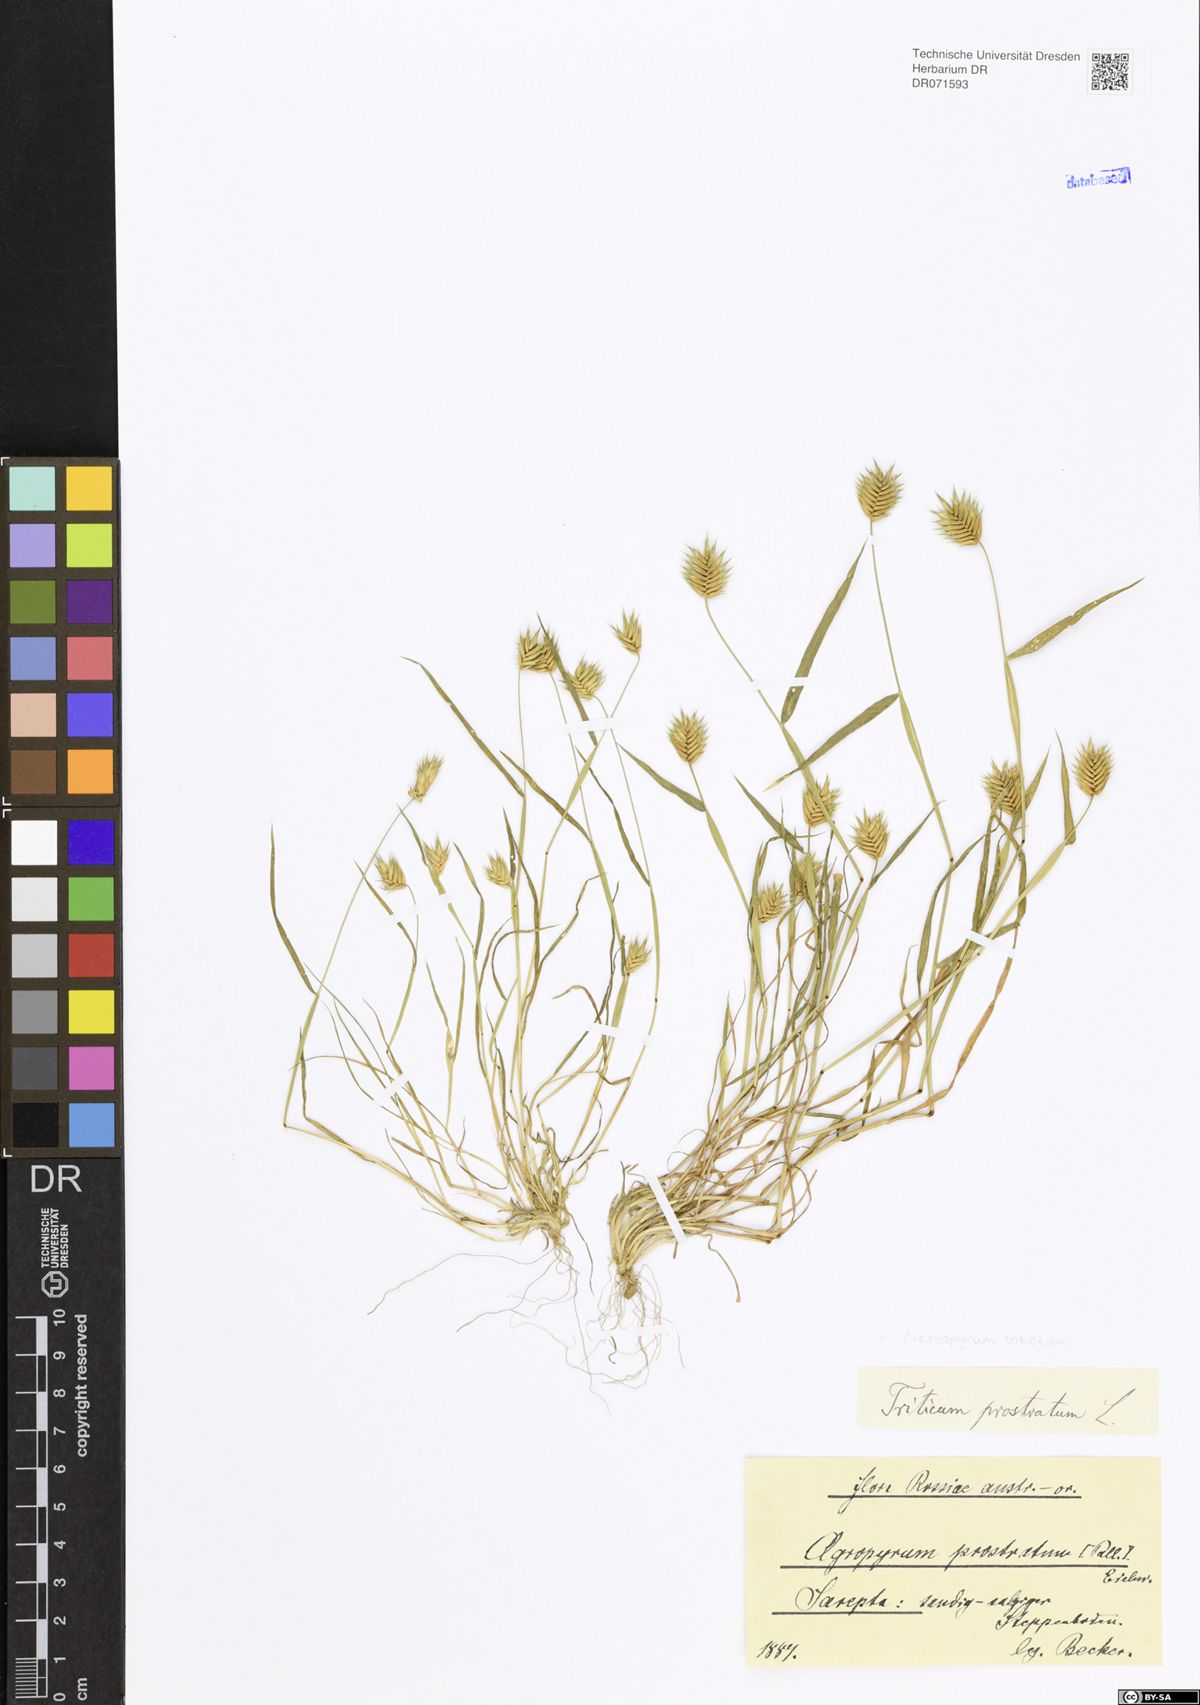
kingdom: Plantae
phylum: Tracheophyta
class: Liliopsida
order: Poales
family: Poaceae
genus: Eremopyrum
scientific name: Eremopyrum triticeum
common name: Annual wheatgrass
